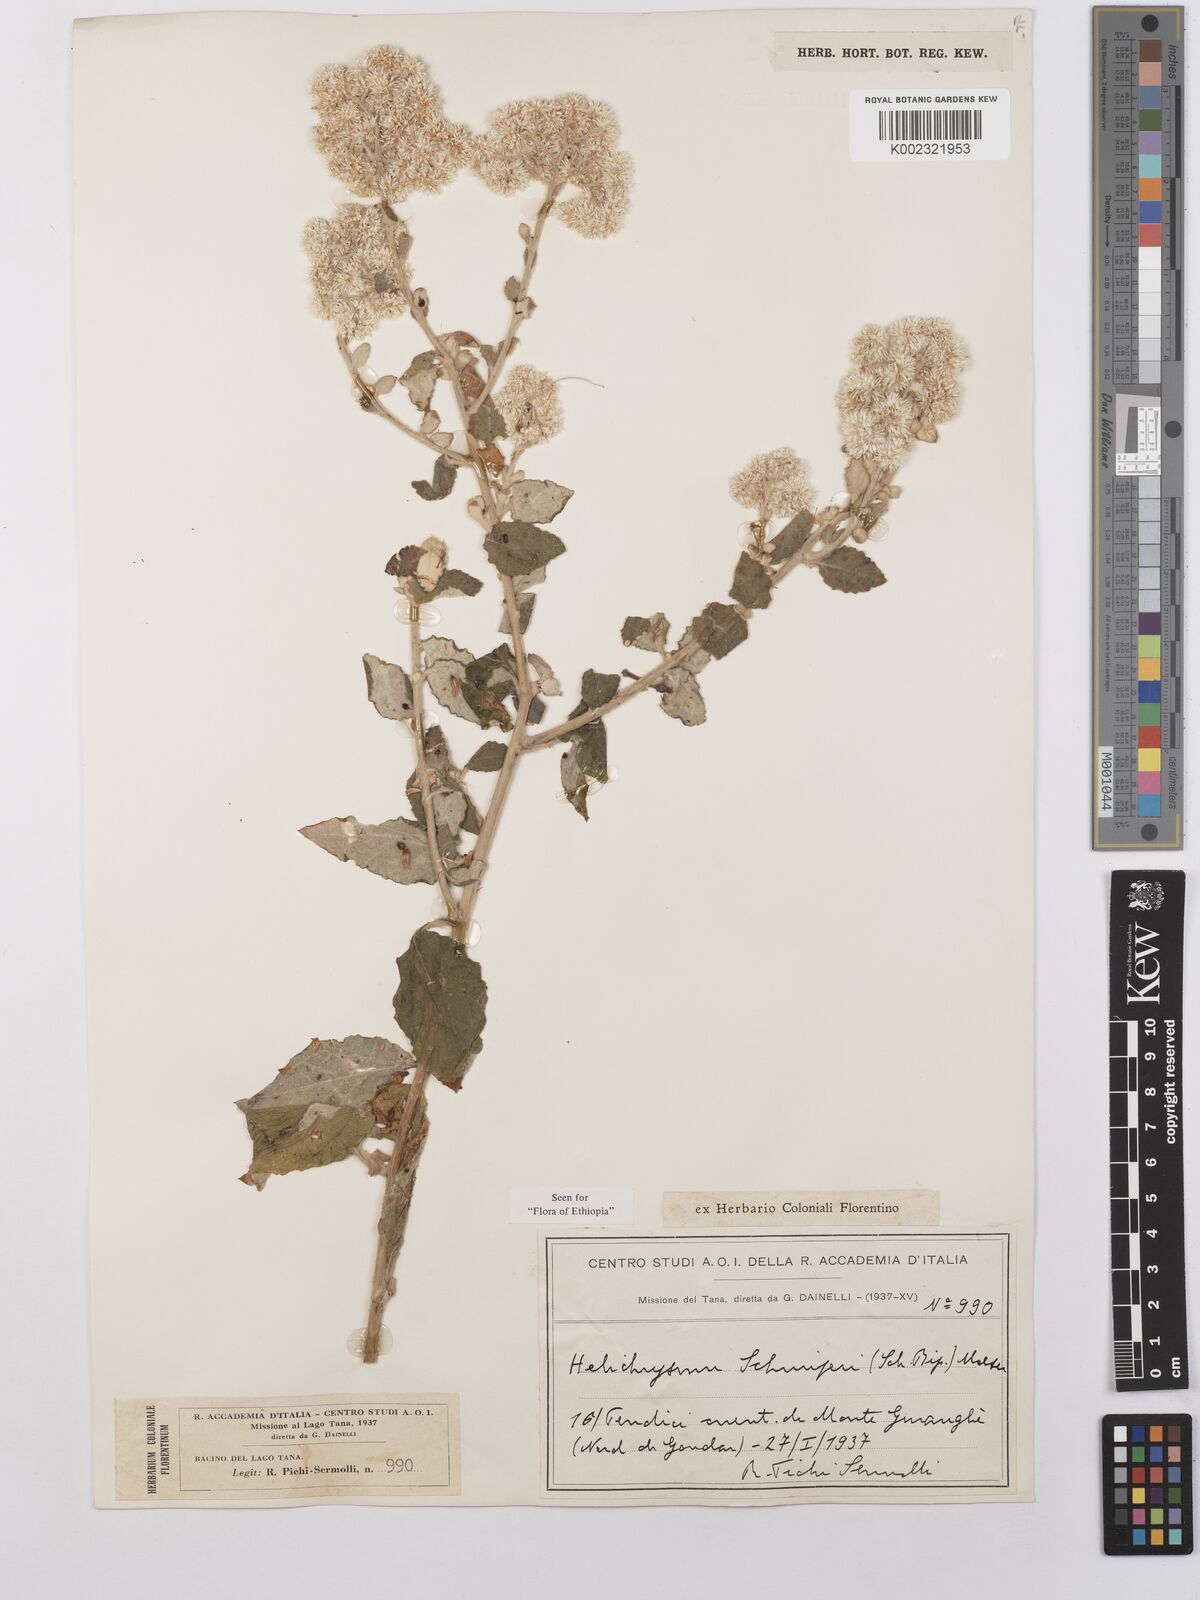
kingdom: Plantae
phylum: Tracheophyta
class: Magnoliopsida
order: Asterales
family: Asteraceae
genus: Helichrysum
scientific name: Helichrysum schimperi
